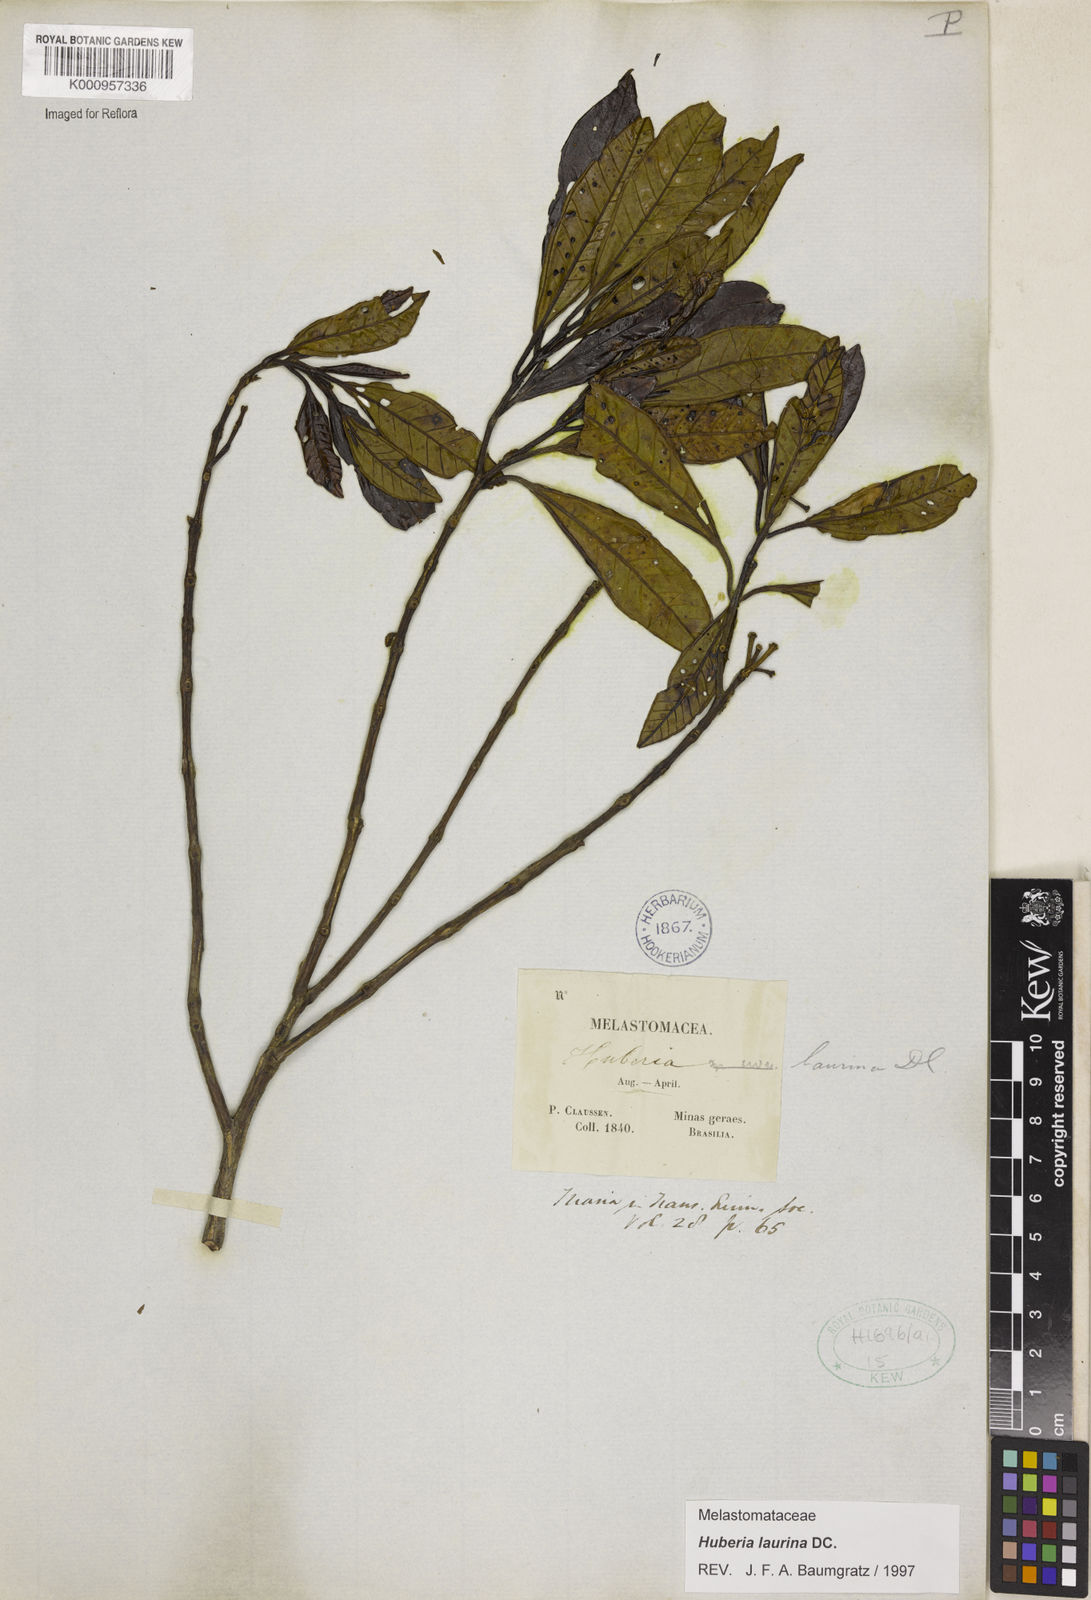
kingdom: Plantae
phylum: Tracheophyta
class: Magnoliopsida
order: Myrtales
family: Melastomataceae
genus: Huberia
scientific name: Huberia laurina
